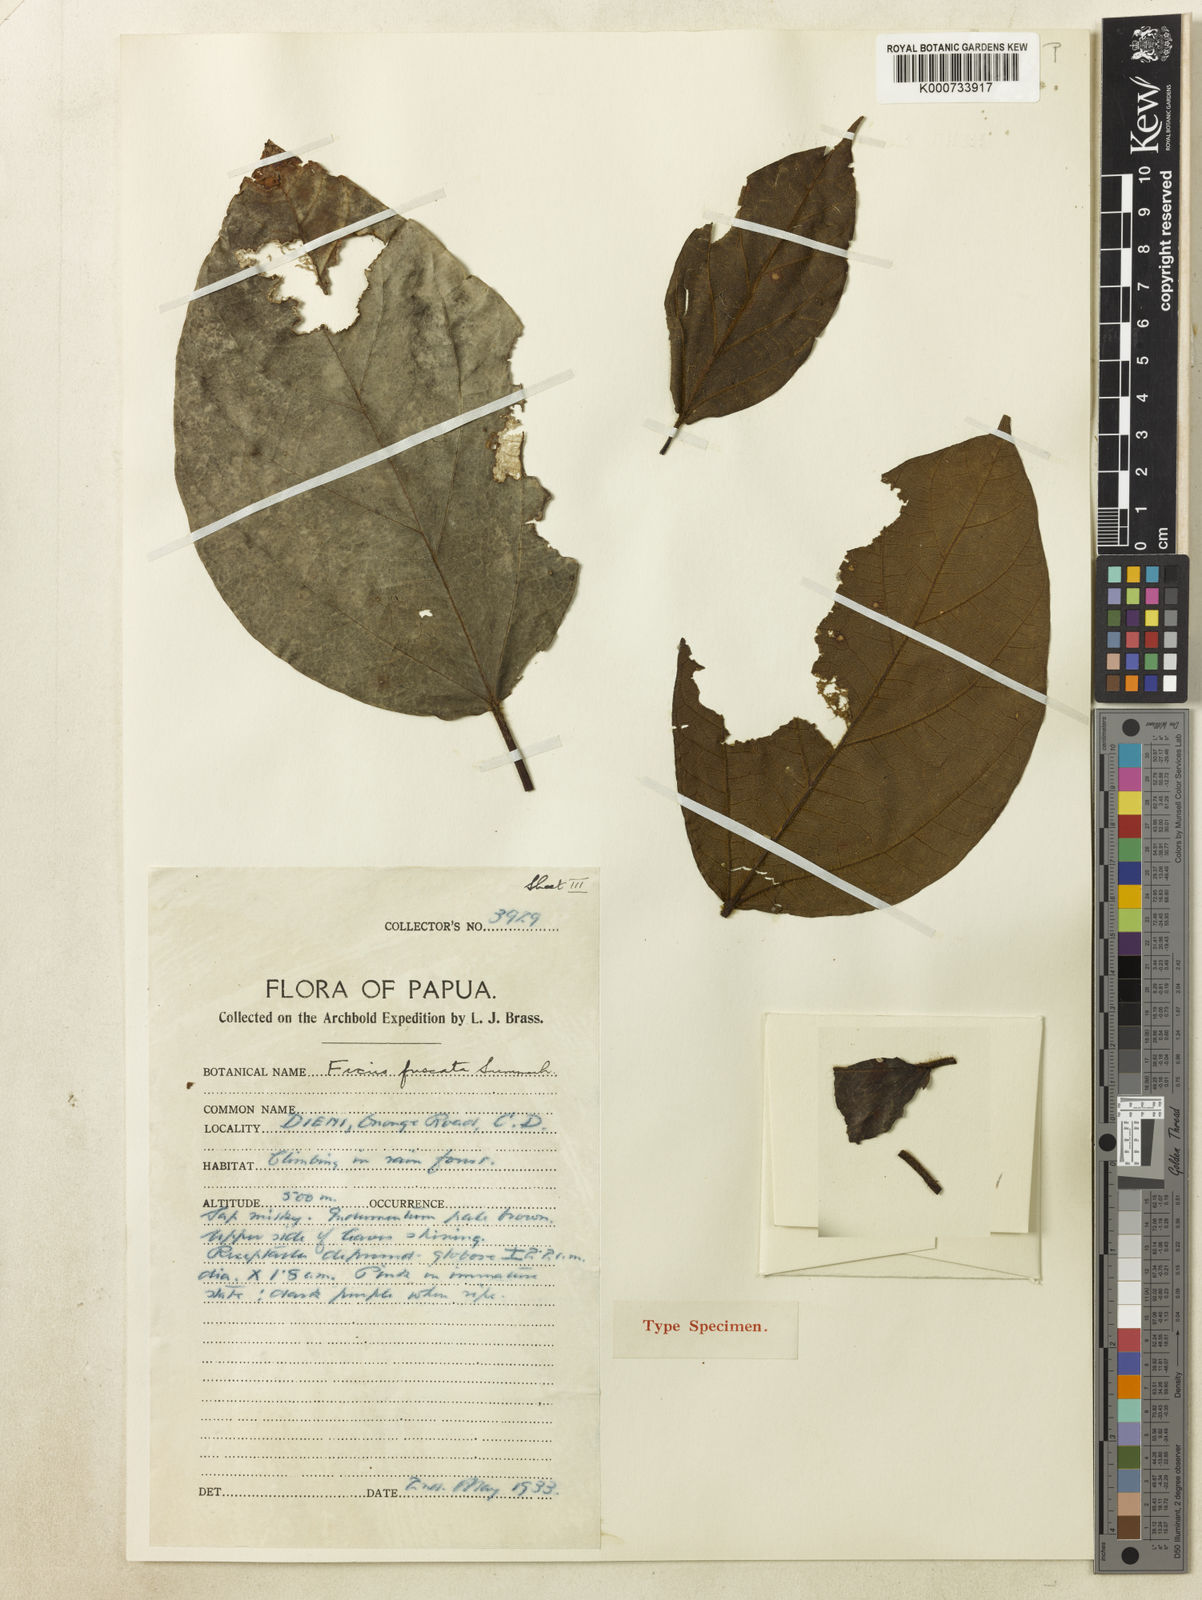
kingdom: Plantae
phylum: Tracheophyta
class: Magnoliopsida
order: Rosales
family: Moraceae
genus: Ficus
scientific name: Ficus fuscata
